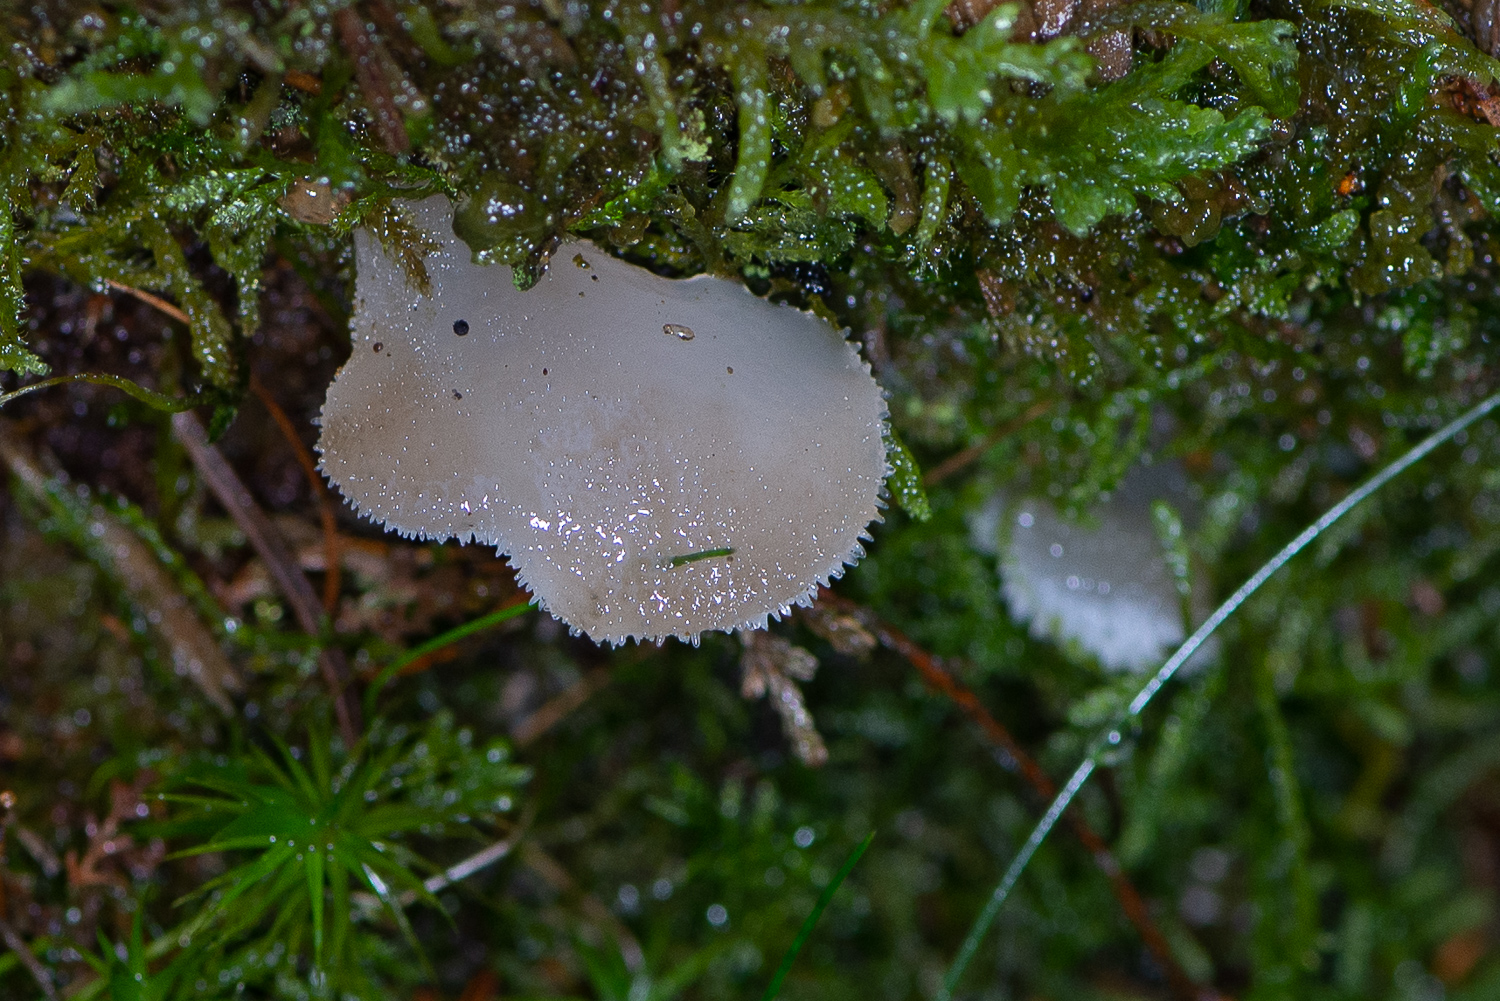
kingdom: Fungi
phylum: Basidiomycota
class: Agaricomycetes
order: Auriculariales
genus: Pseudohydnum
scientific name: Pseudohydnum gelatinosum
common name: bævretand
